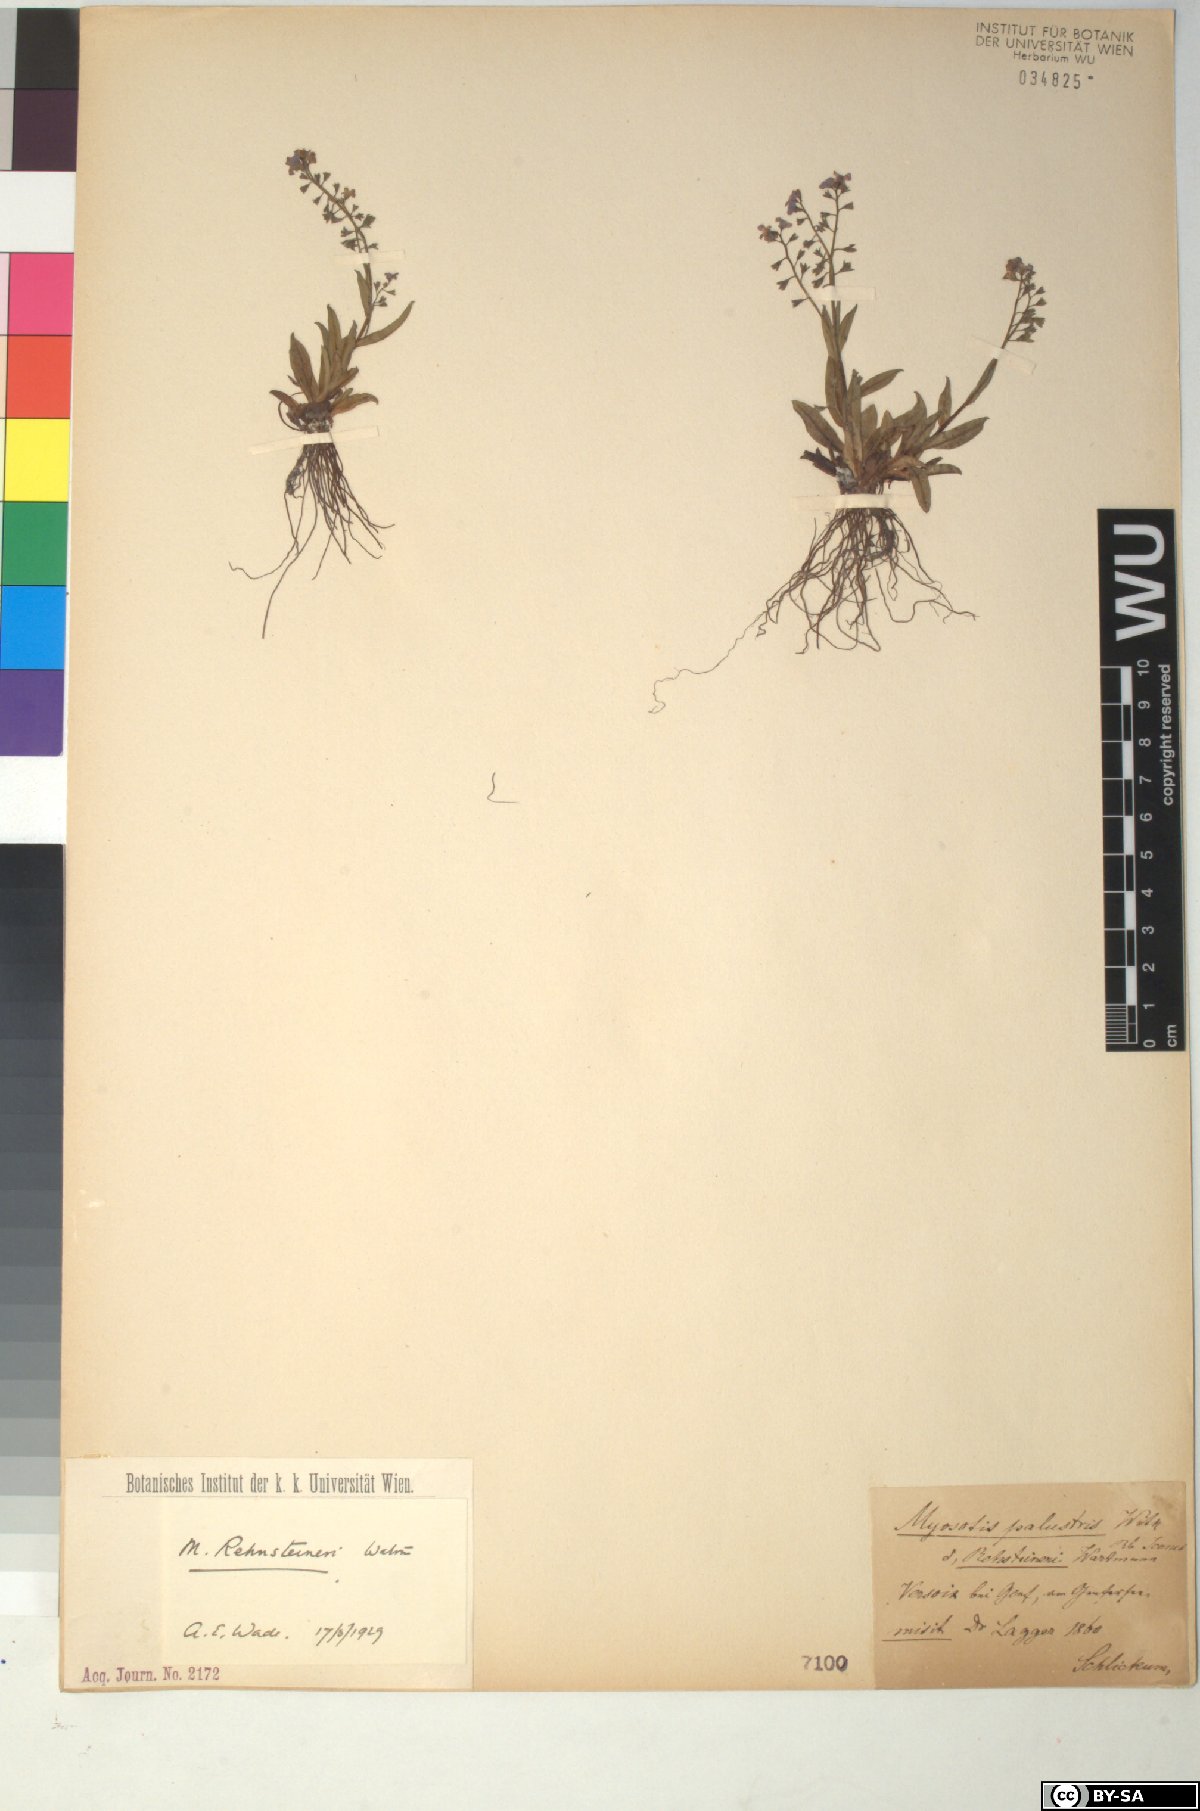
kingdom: Plantae
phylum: Tracheophyta
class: Magnoliopsida
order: Boraginales
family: Boraginaceae
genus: Myosotis
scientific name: Myosotis rehsteineri
